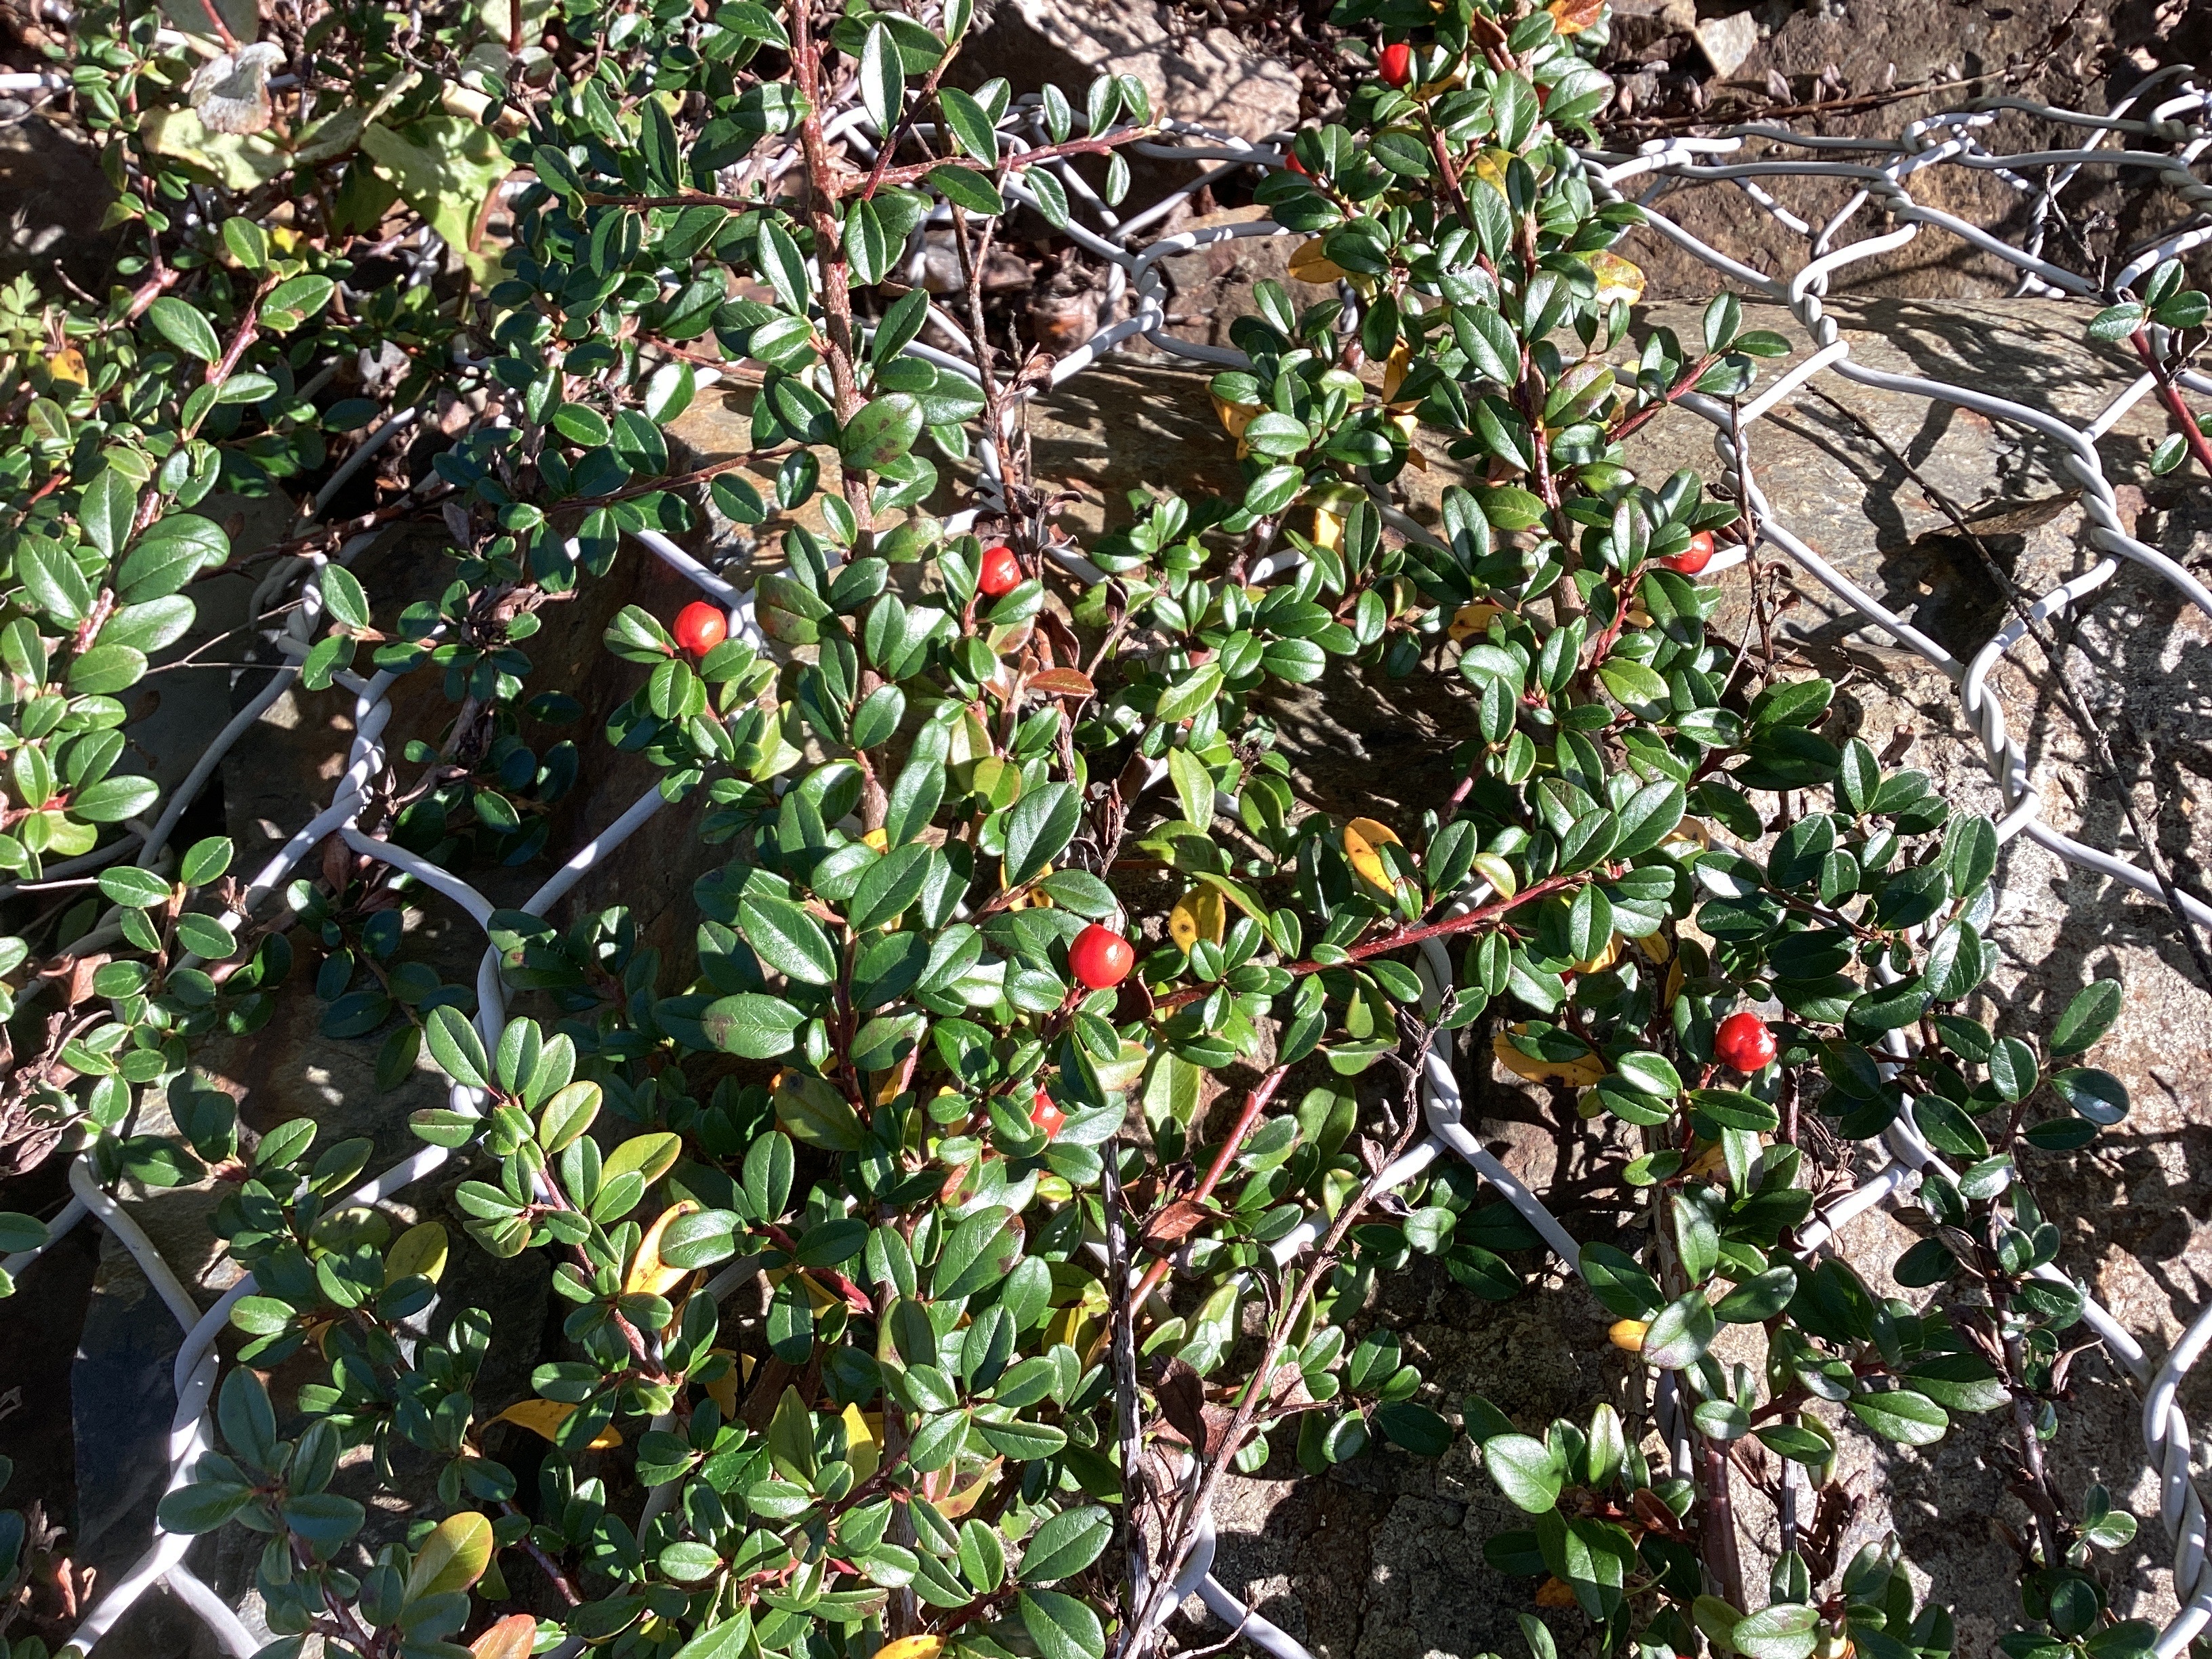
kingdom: Plantae
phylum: Tracheophyta
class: Magnoliopsida
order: Rosales
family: Rosaceae
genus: Cotoneaster
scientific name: Cotoneaster dammeri
